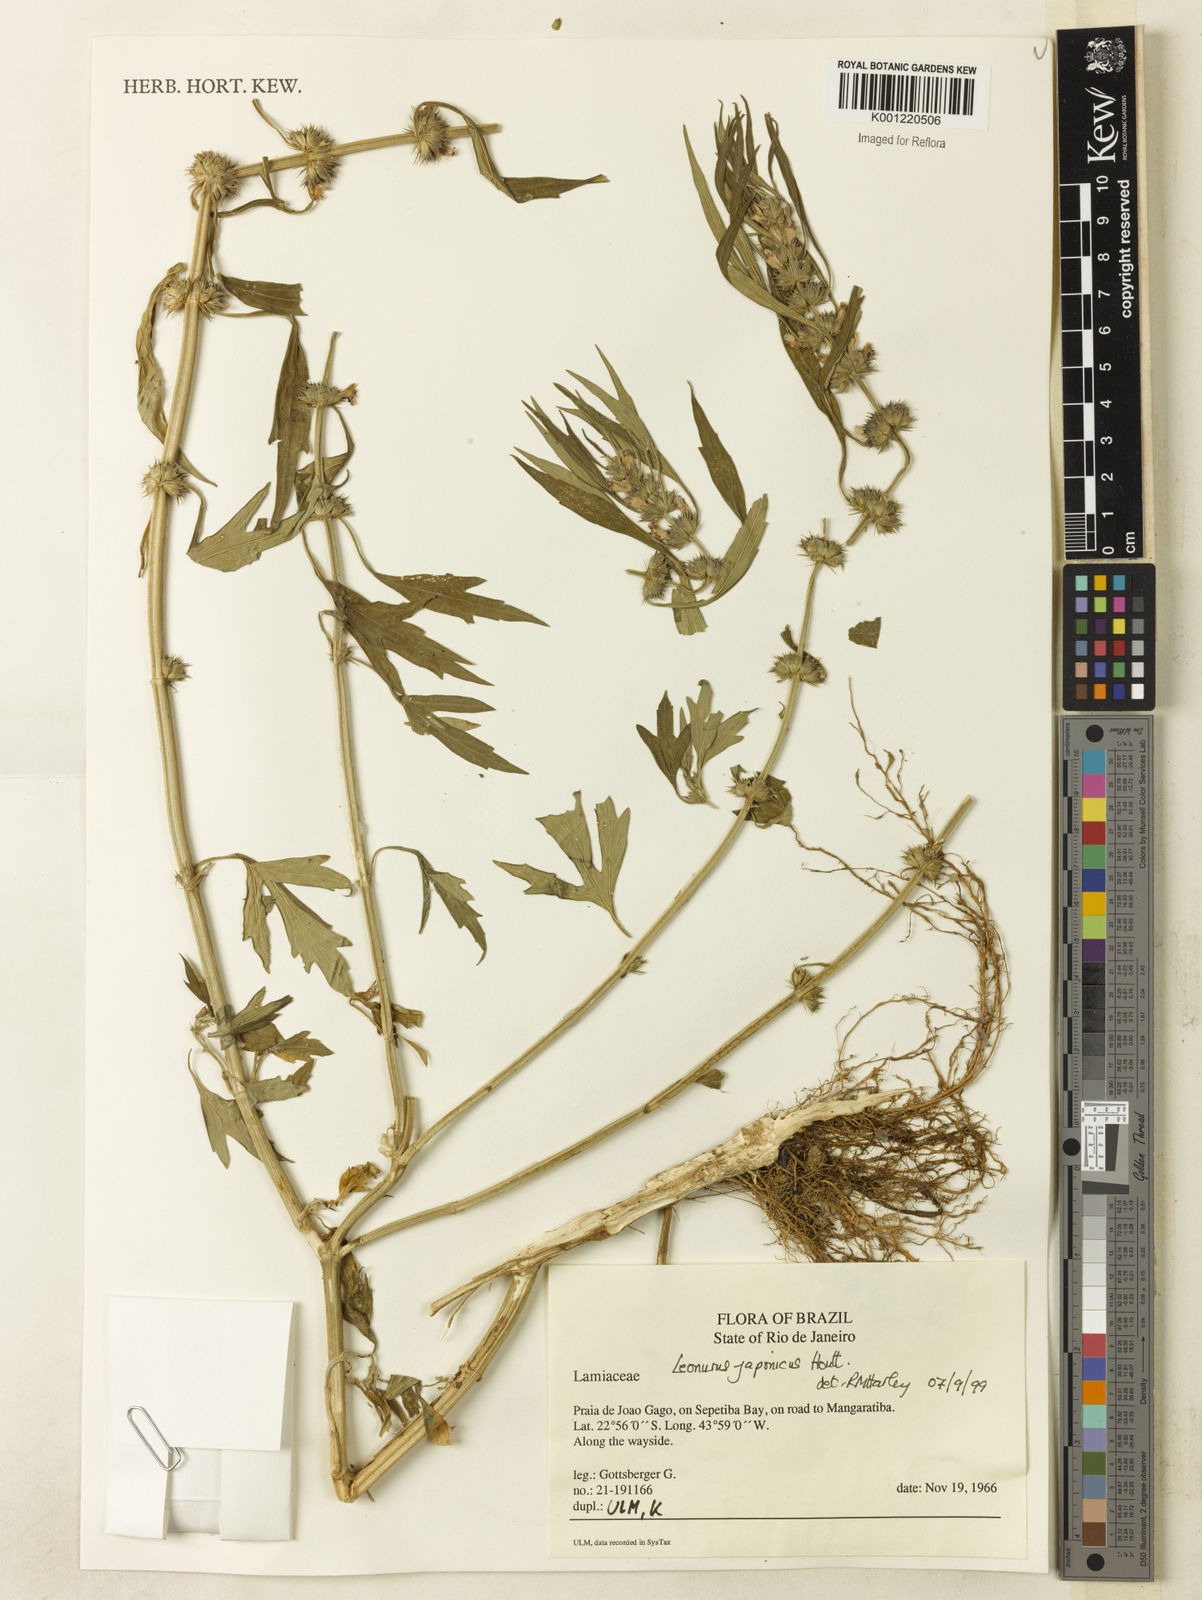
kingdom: Plantae
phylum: Tracheophyta
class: Magnoliopsida
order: Lamiales
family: Lamiaceae
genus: Leonurus
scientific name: Leonurus japonicus
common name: Honeyweed
